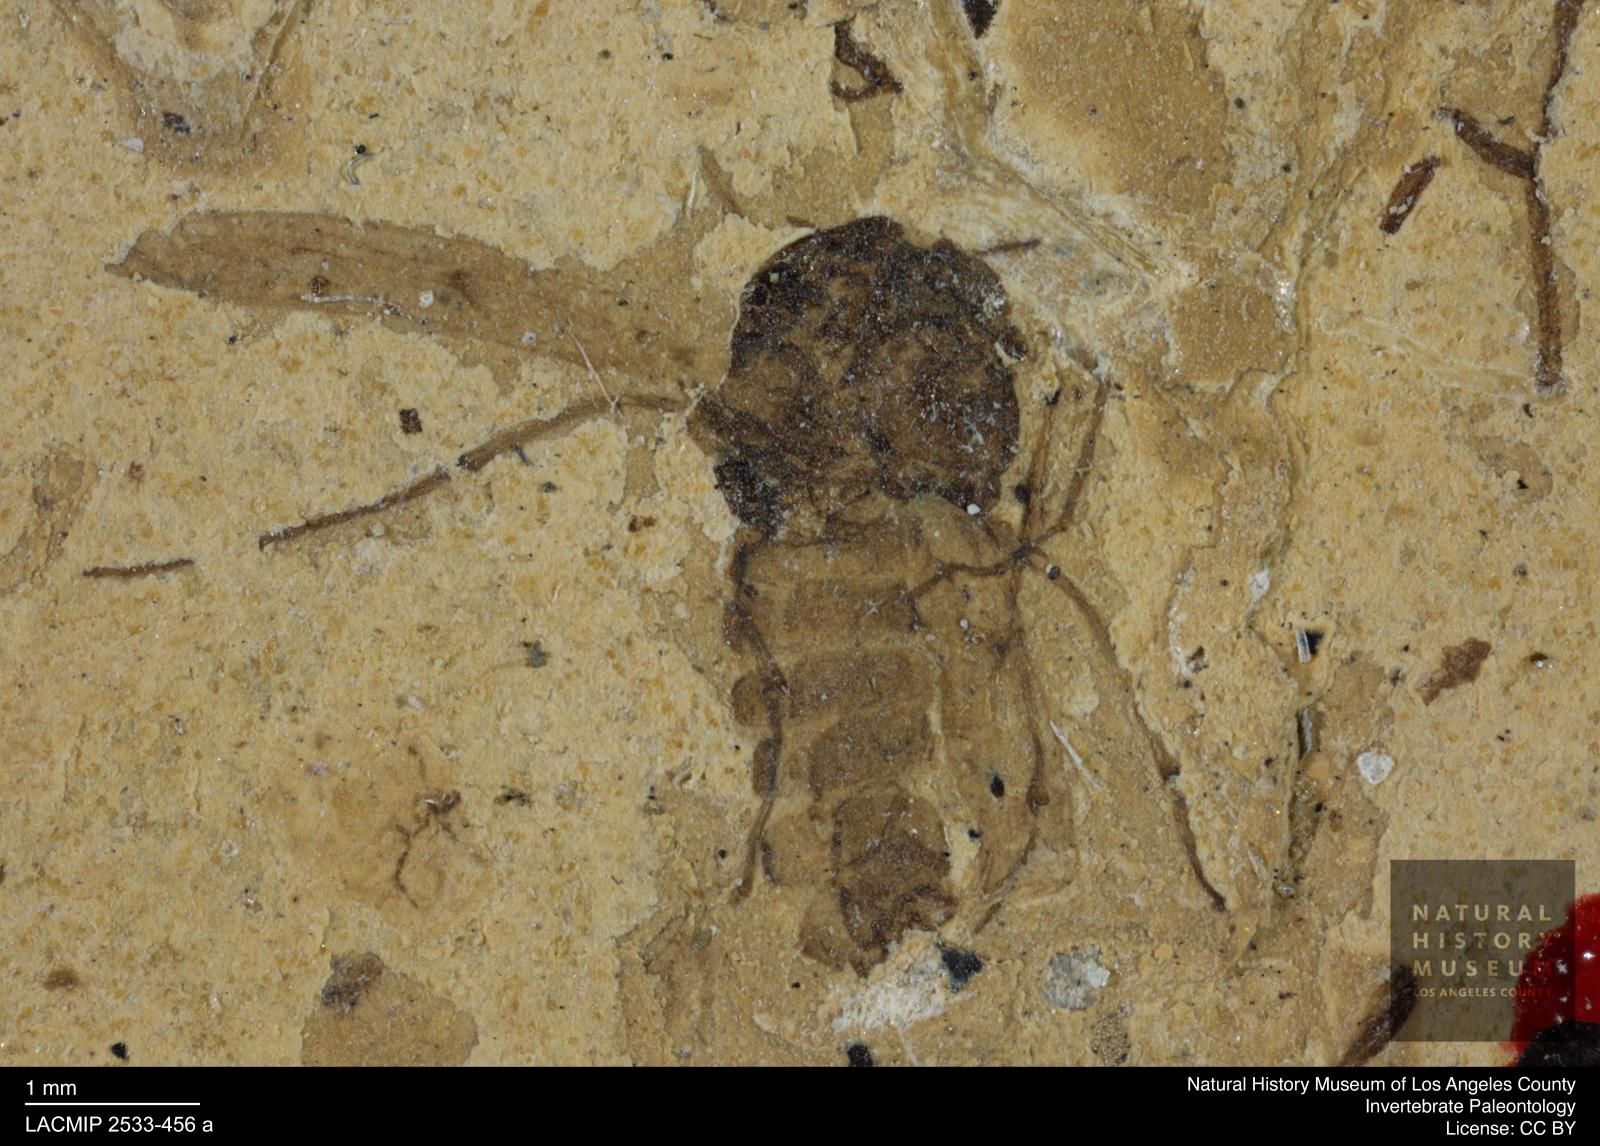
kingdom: Animalia
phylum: Arthropoda
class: Insecta
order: Diptera
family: Chironomidae
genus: Tanypus
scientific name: Tanypus thienemanni
